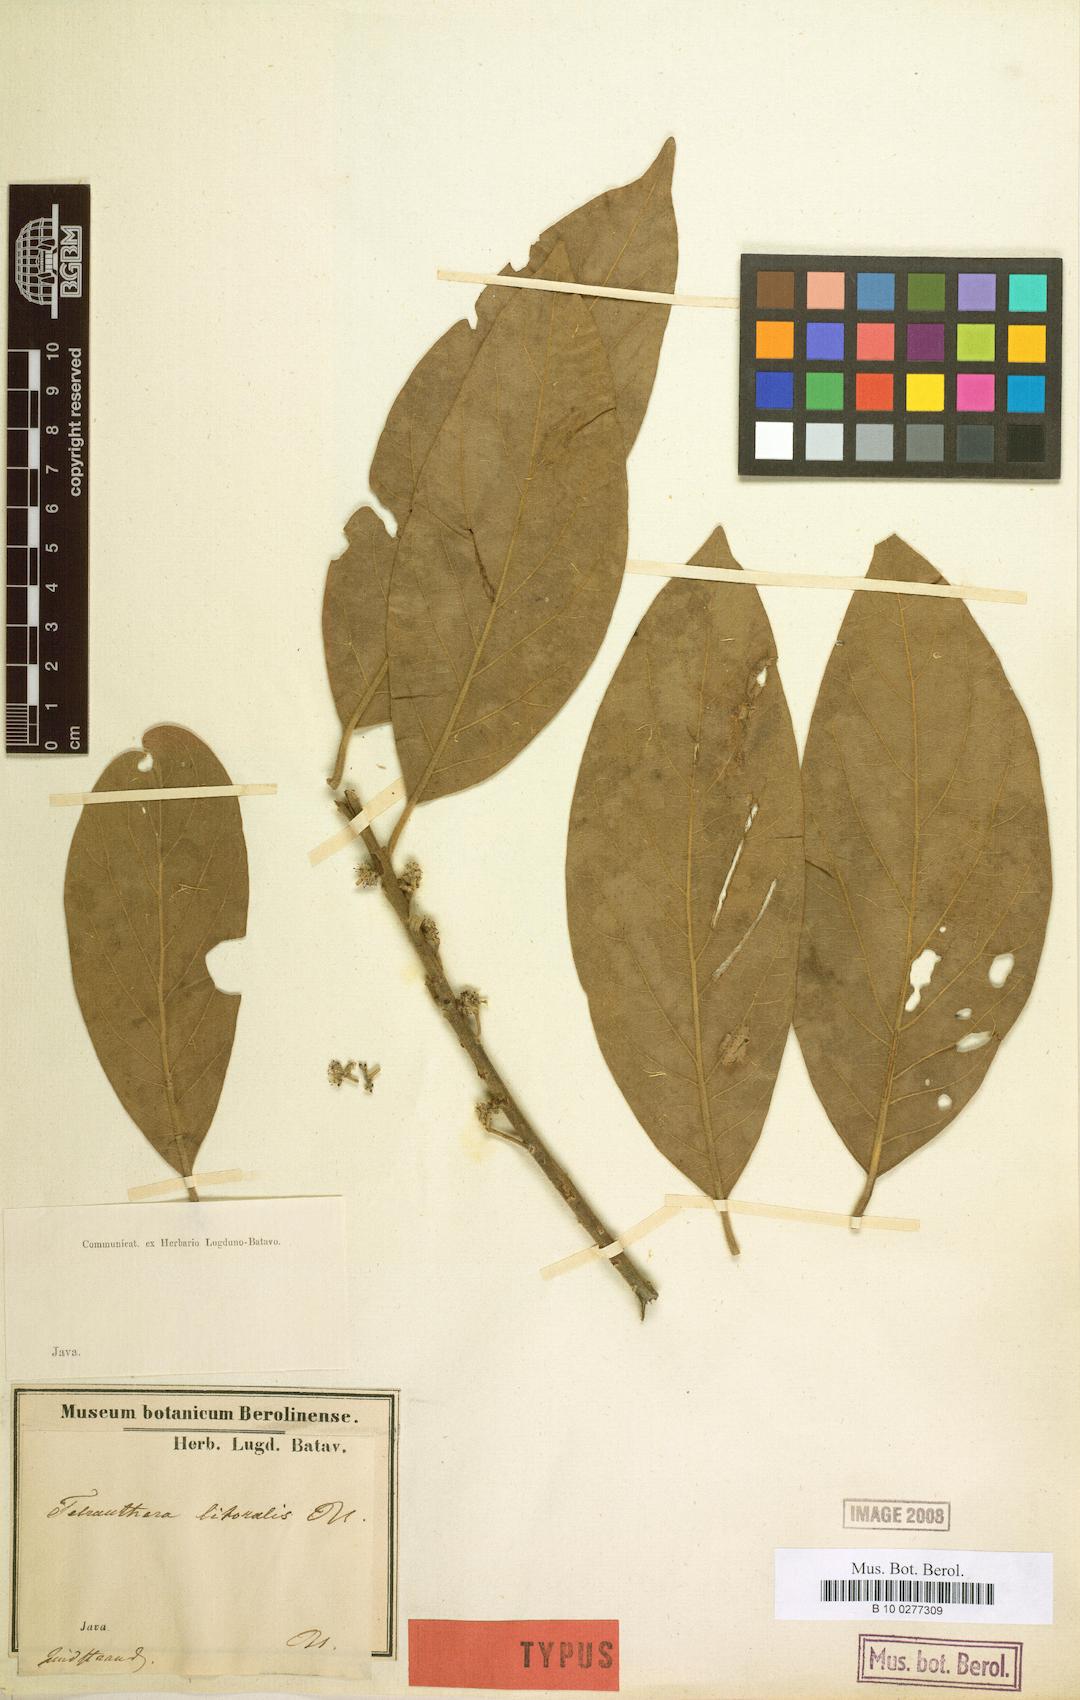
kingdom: Plantae
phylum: Tracheophyta
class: Magnoliopsida
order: Laurales
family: Lauraceae
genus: Neolitsea
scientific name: Neolitsea umbrosa
